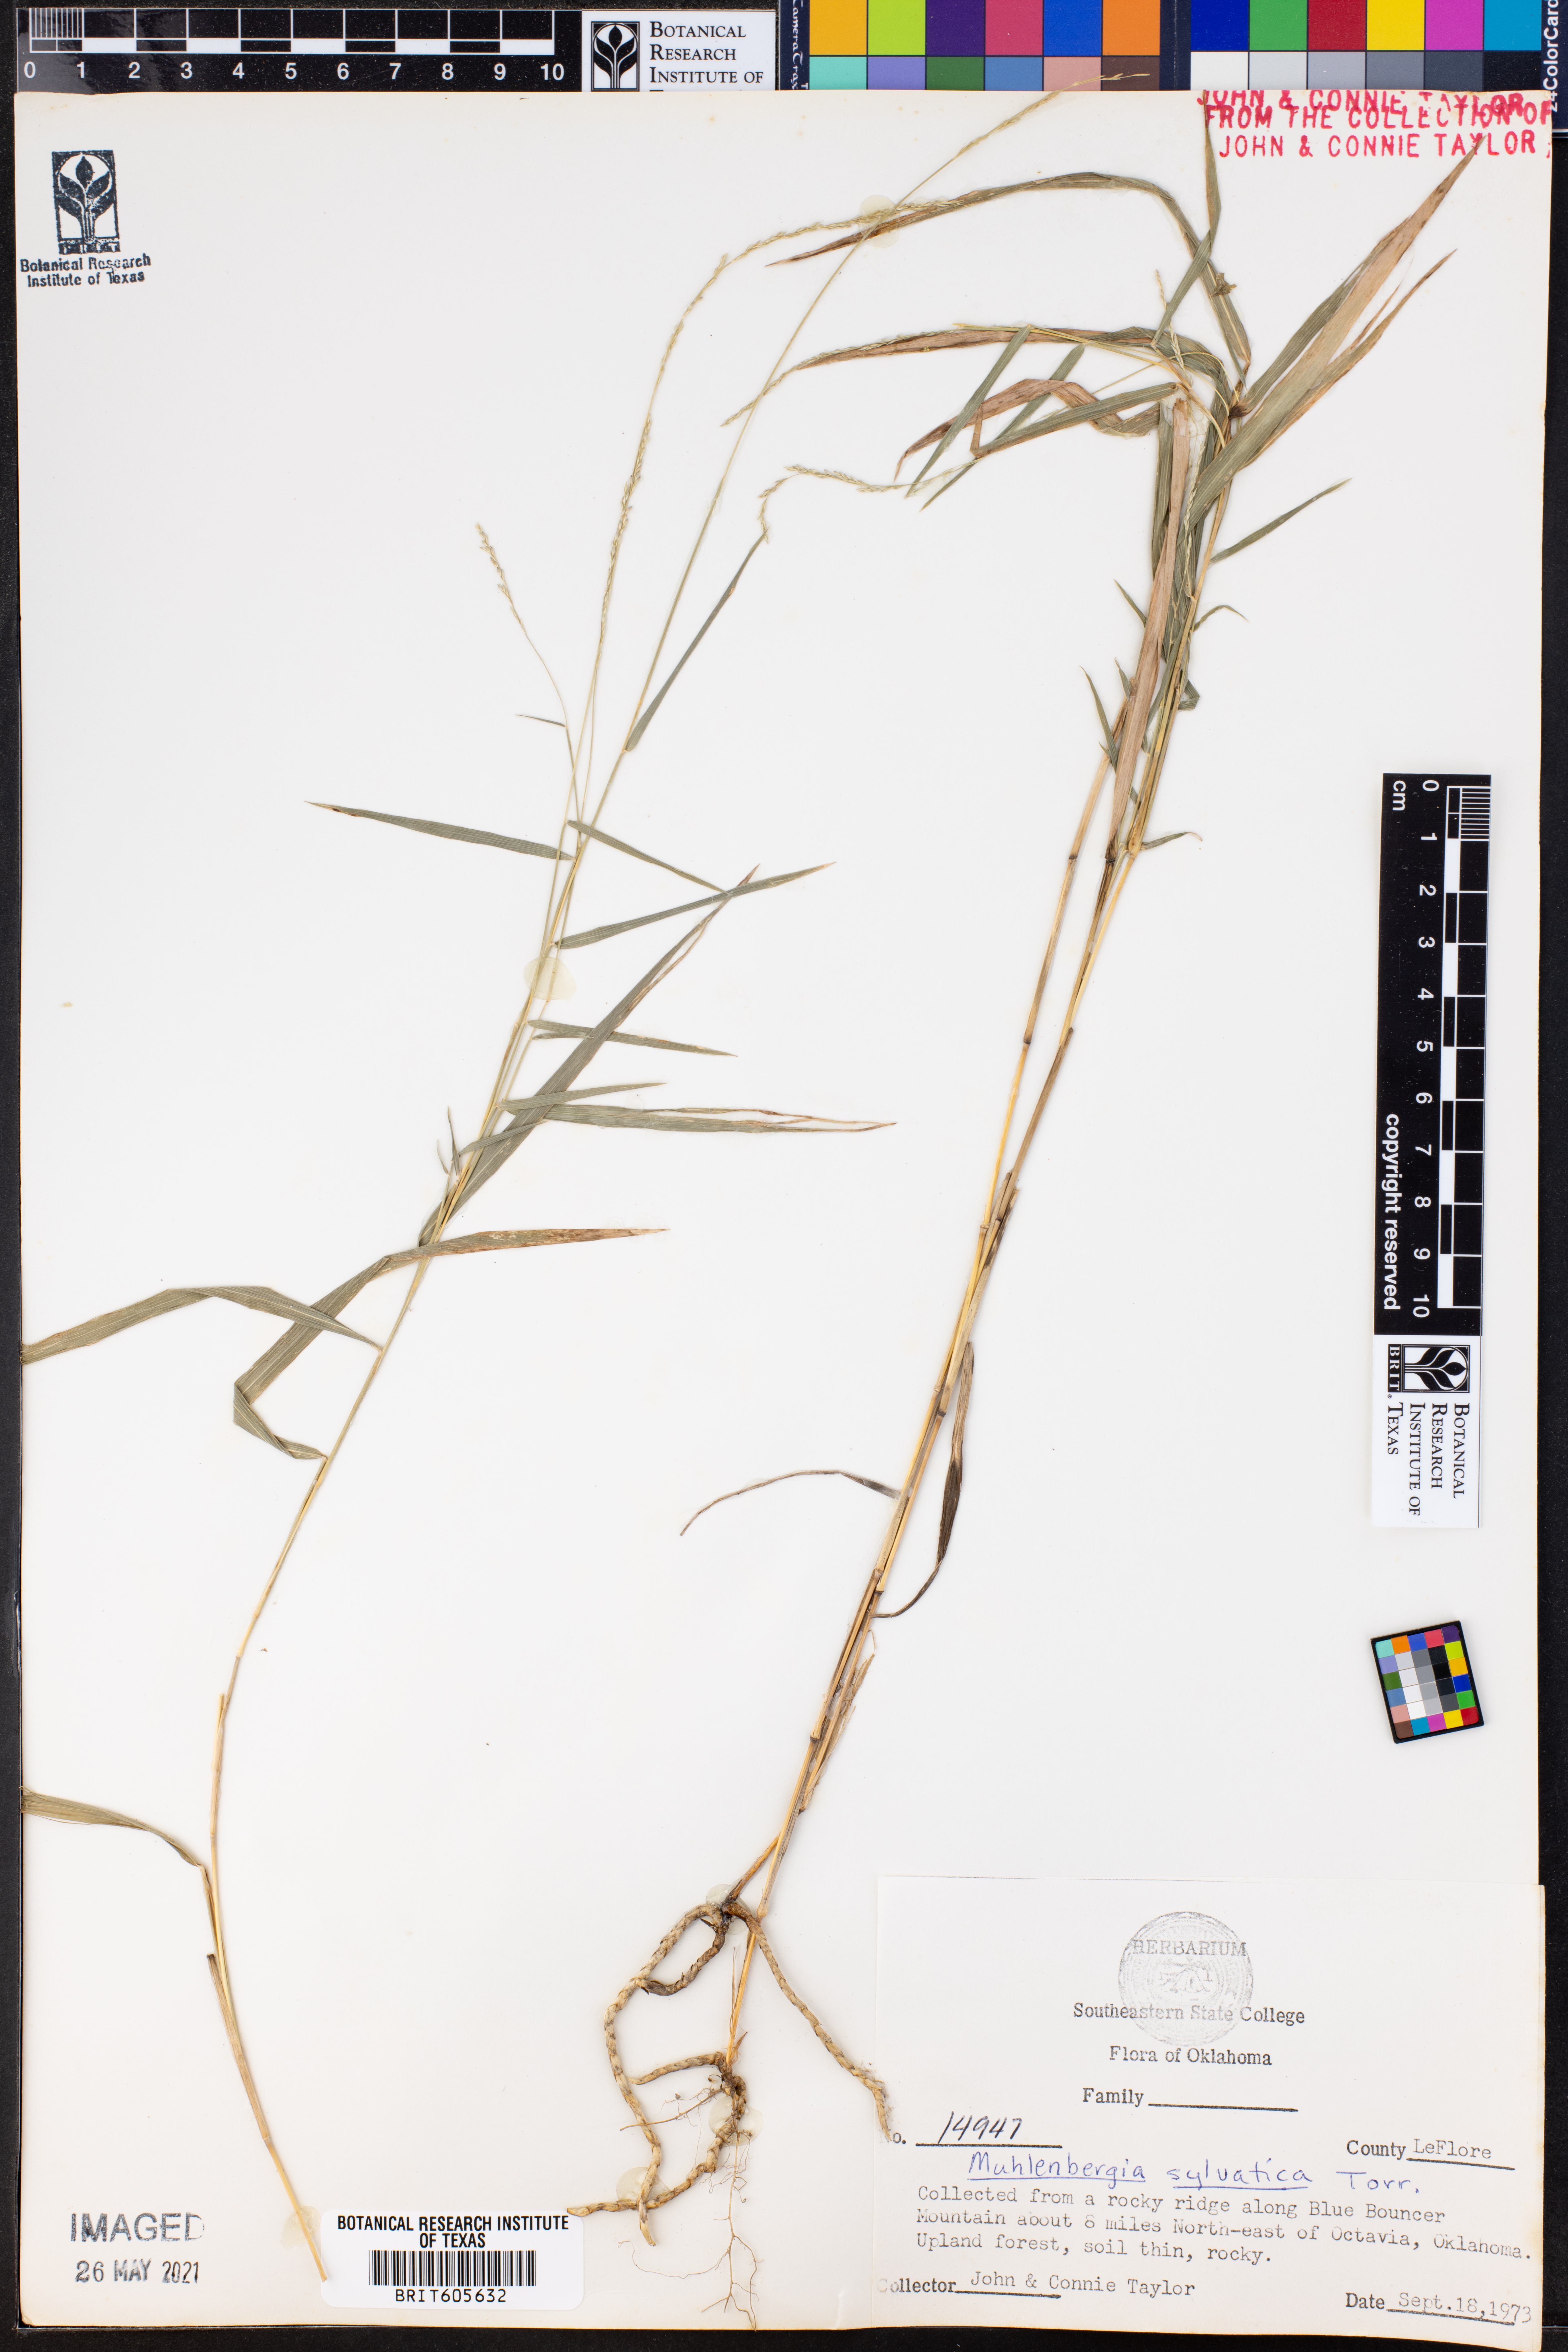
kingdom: Plantae
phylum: Tracheophyta
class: Liliopsida
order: Poales
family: Poaceae
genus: Muhlenbergia
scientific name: Muhlenbergia sylvatica
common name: Woodland muhly
